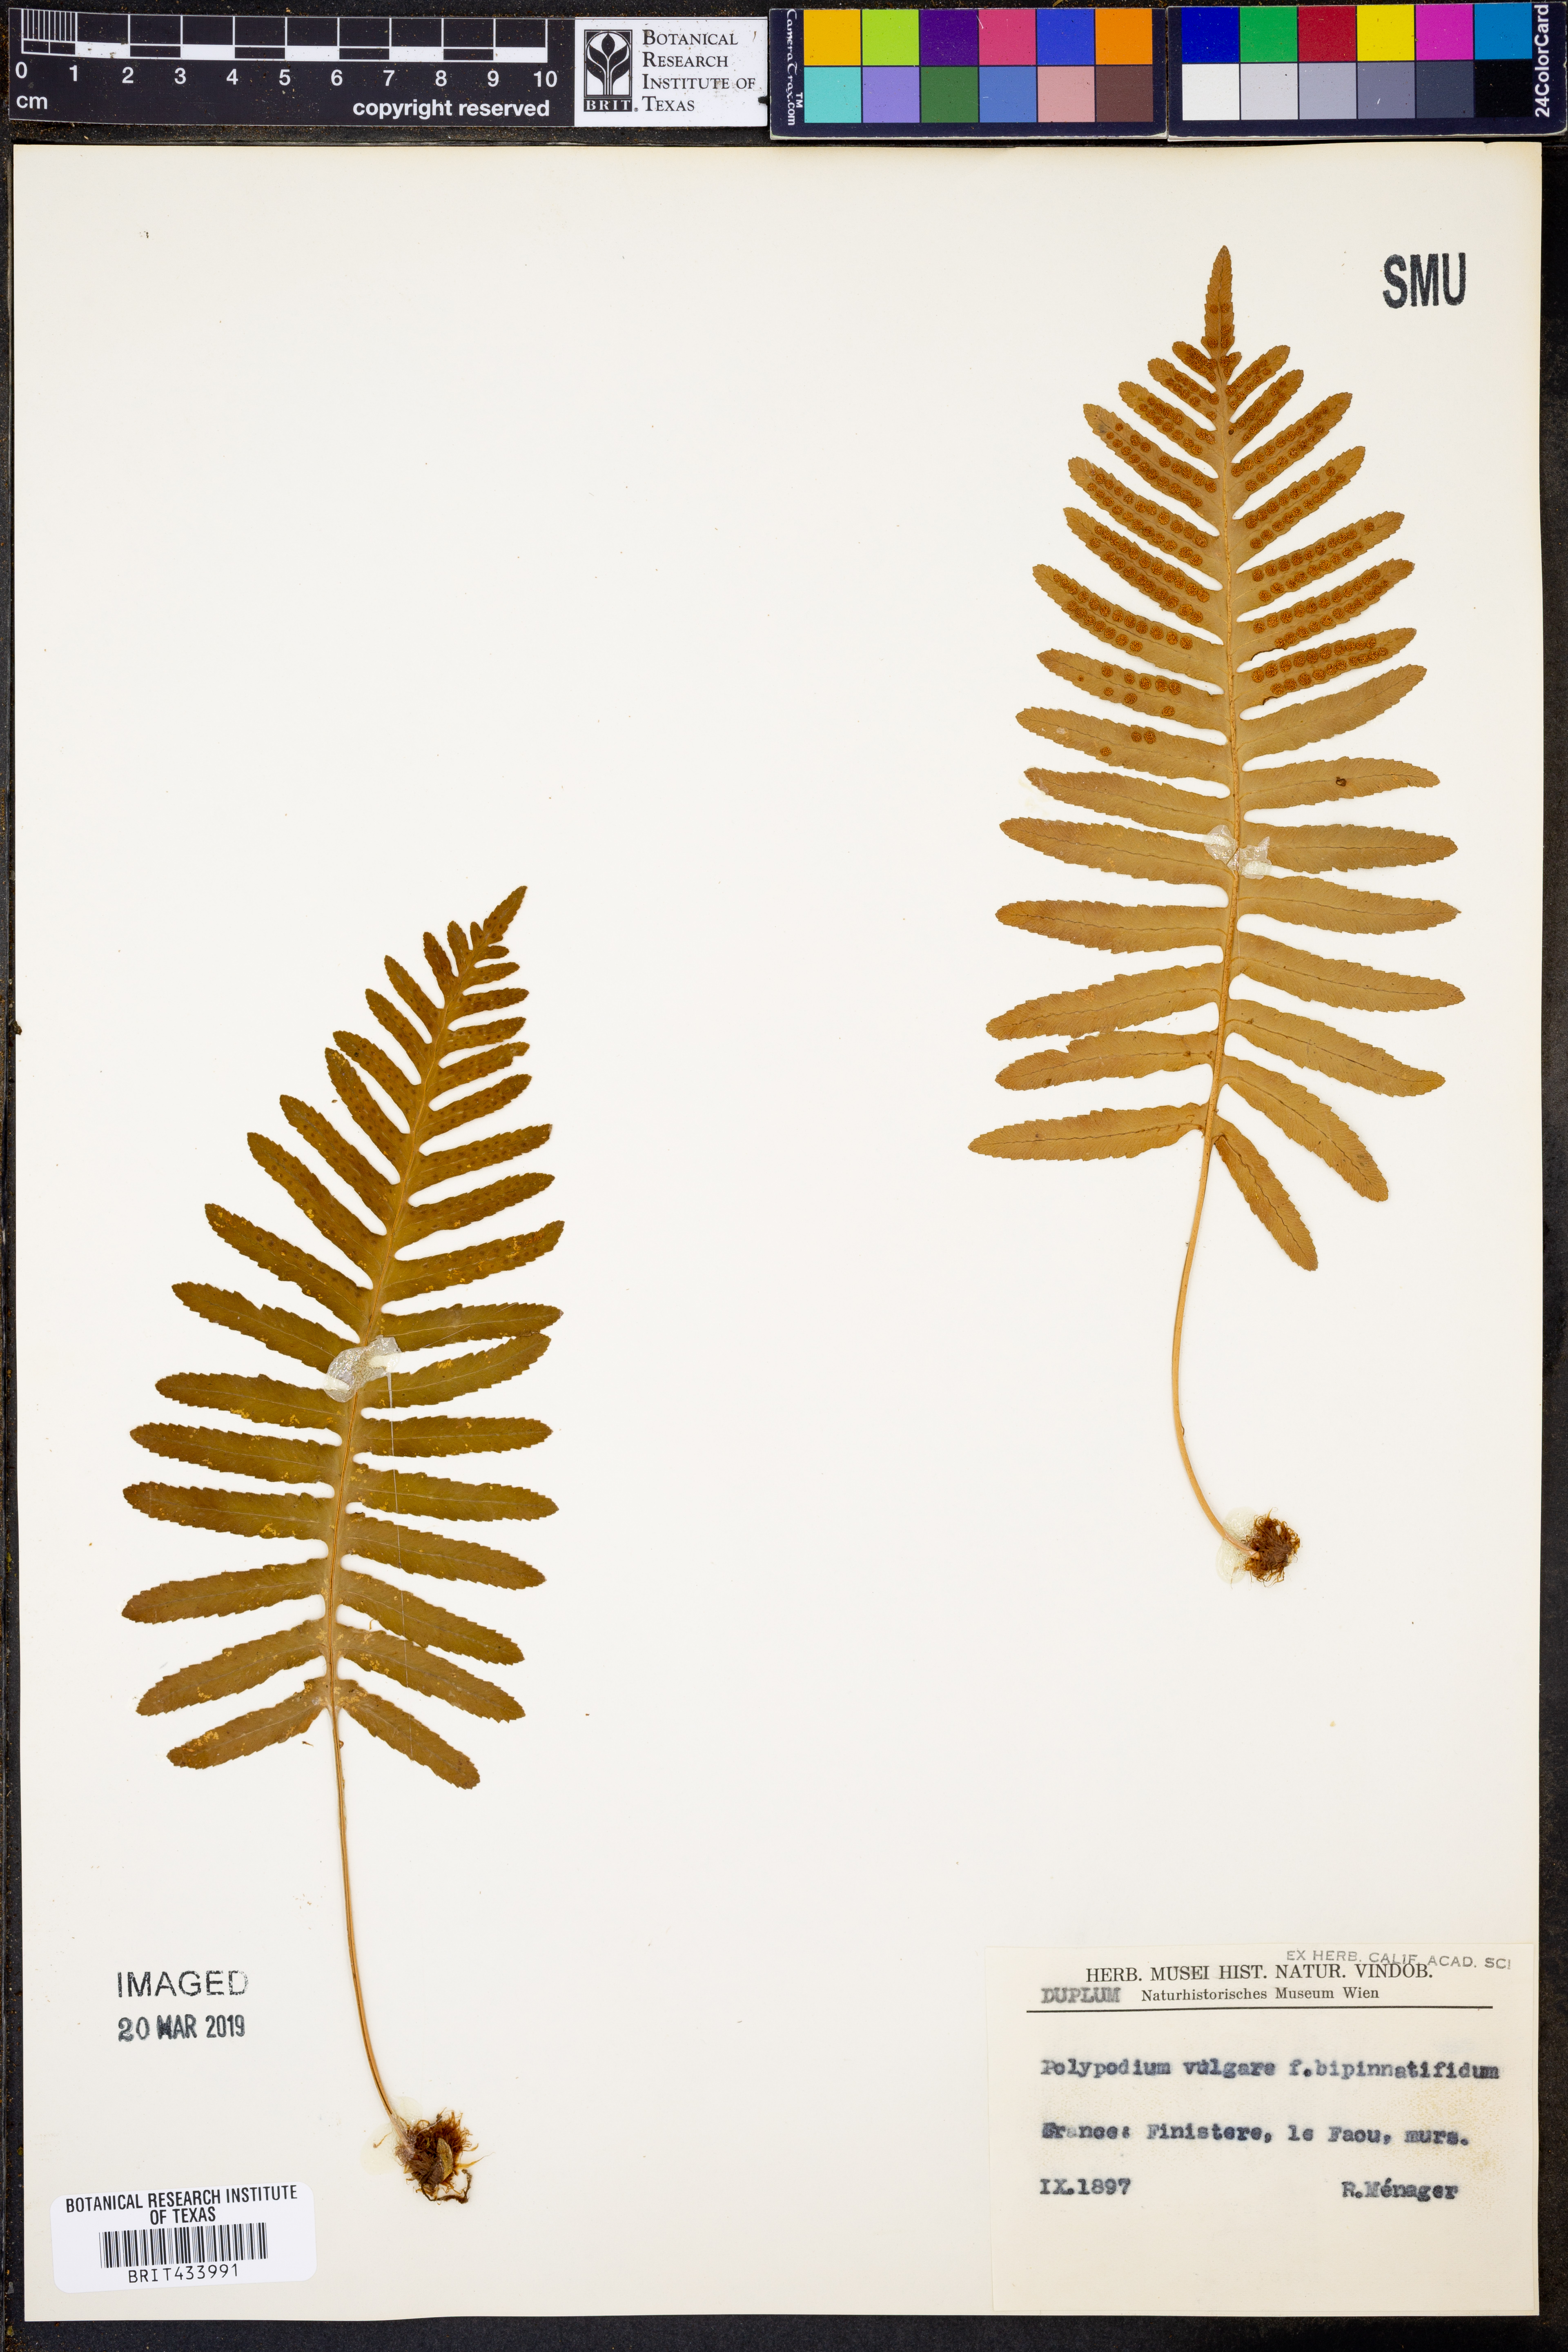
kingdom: Plantae
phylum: Tracheophyta
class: Polypodiopsida
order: Polypodiales
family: Polypodiaceae
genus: Polypodium
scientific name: Polypodium vulgare
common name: Common polypody
